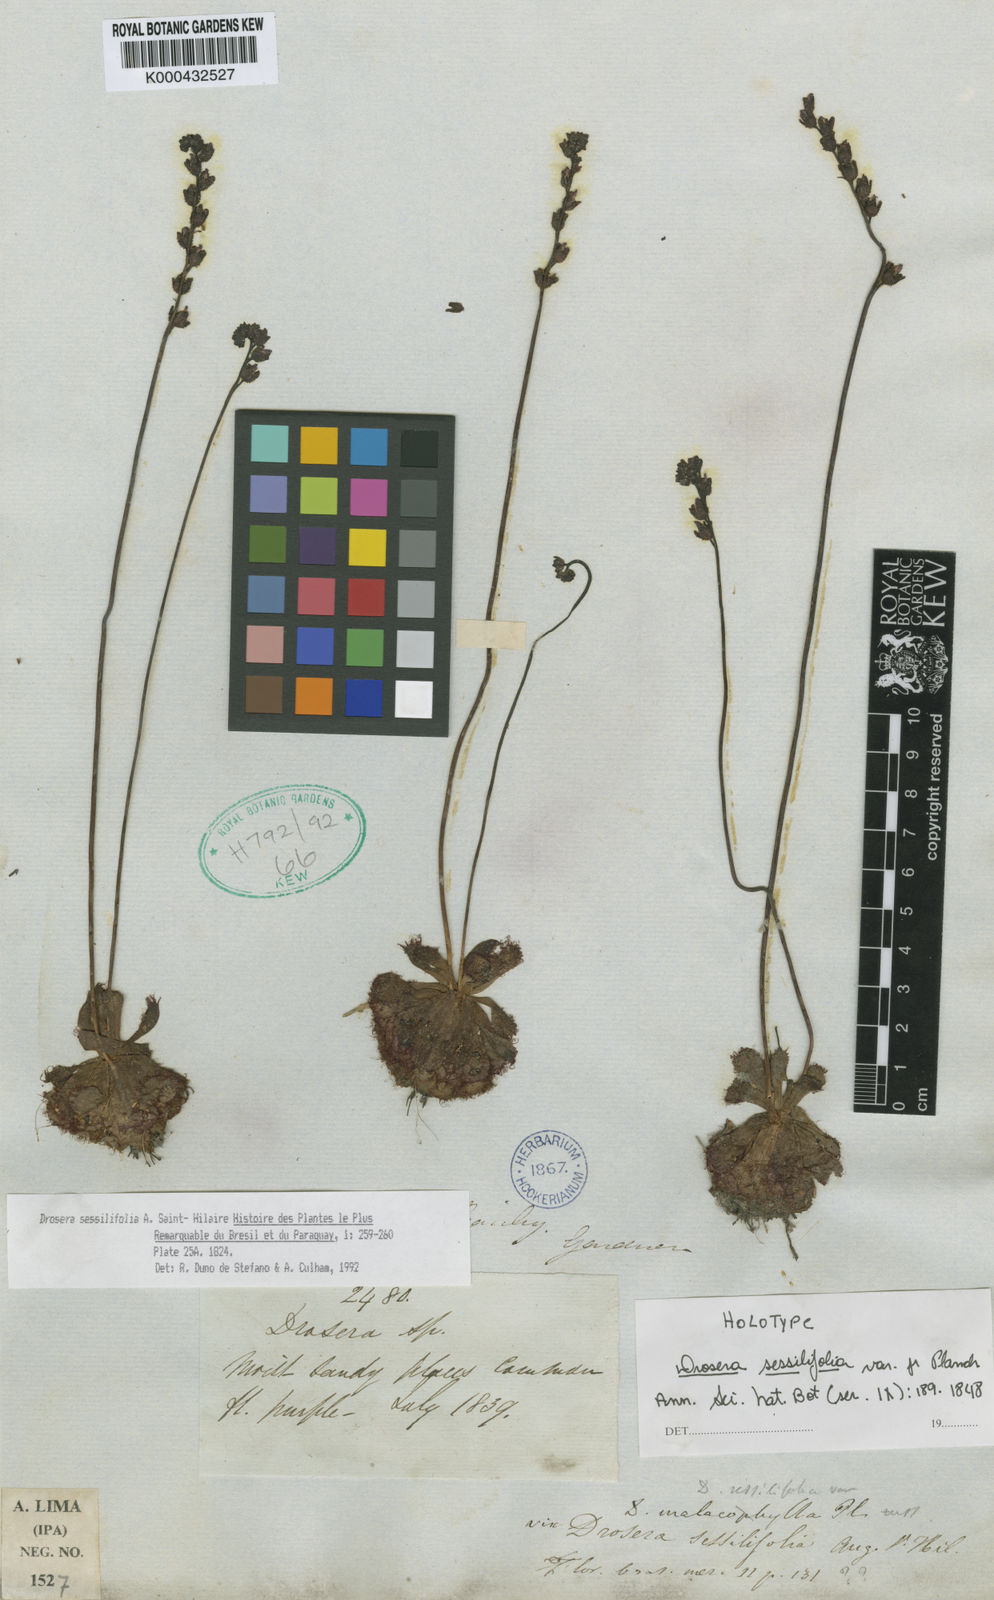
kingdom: Plantae
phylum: Tracheophyta
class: Magnoliopsida
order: Caryophyllales
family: Droseraceae
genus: Drosera
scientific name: Drosera sessilifolia
